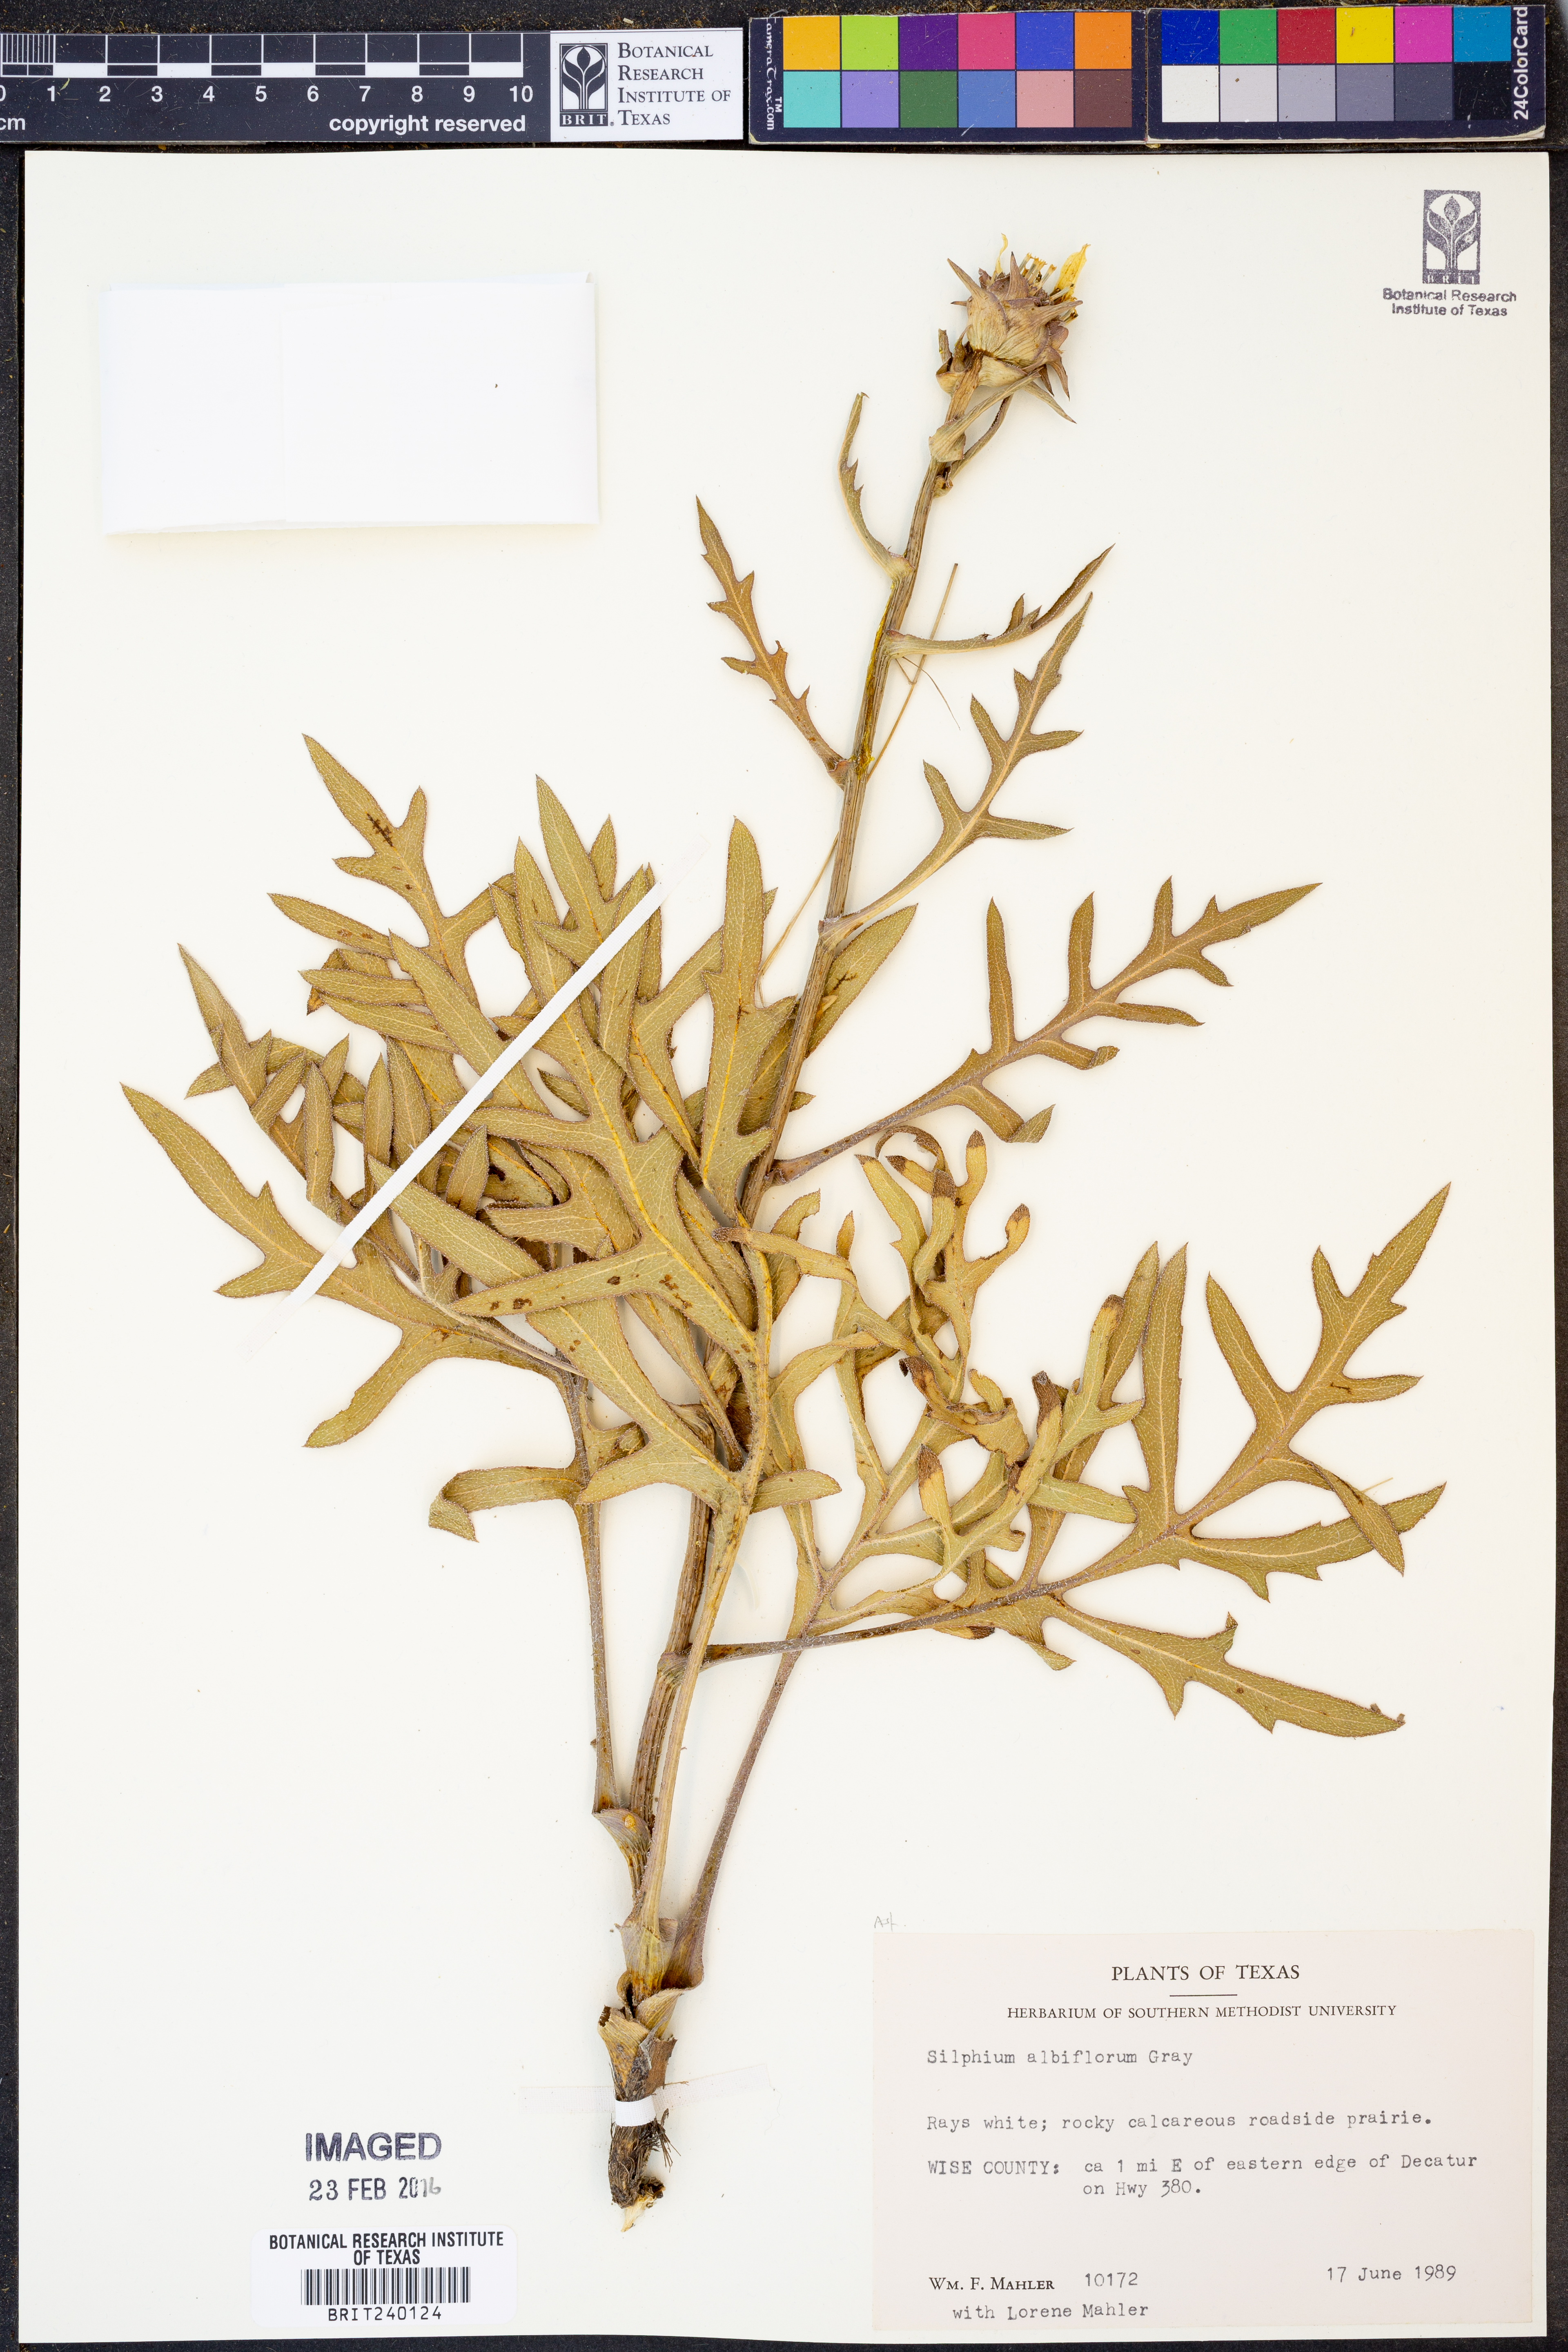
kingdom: Plantae
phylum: Tracheophyta
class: Magnoliopsida
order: Asterales
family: Asteraceae
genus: Silphium
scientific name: Silphium albiflorum
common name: White rosinweed
